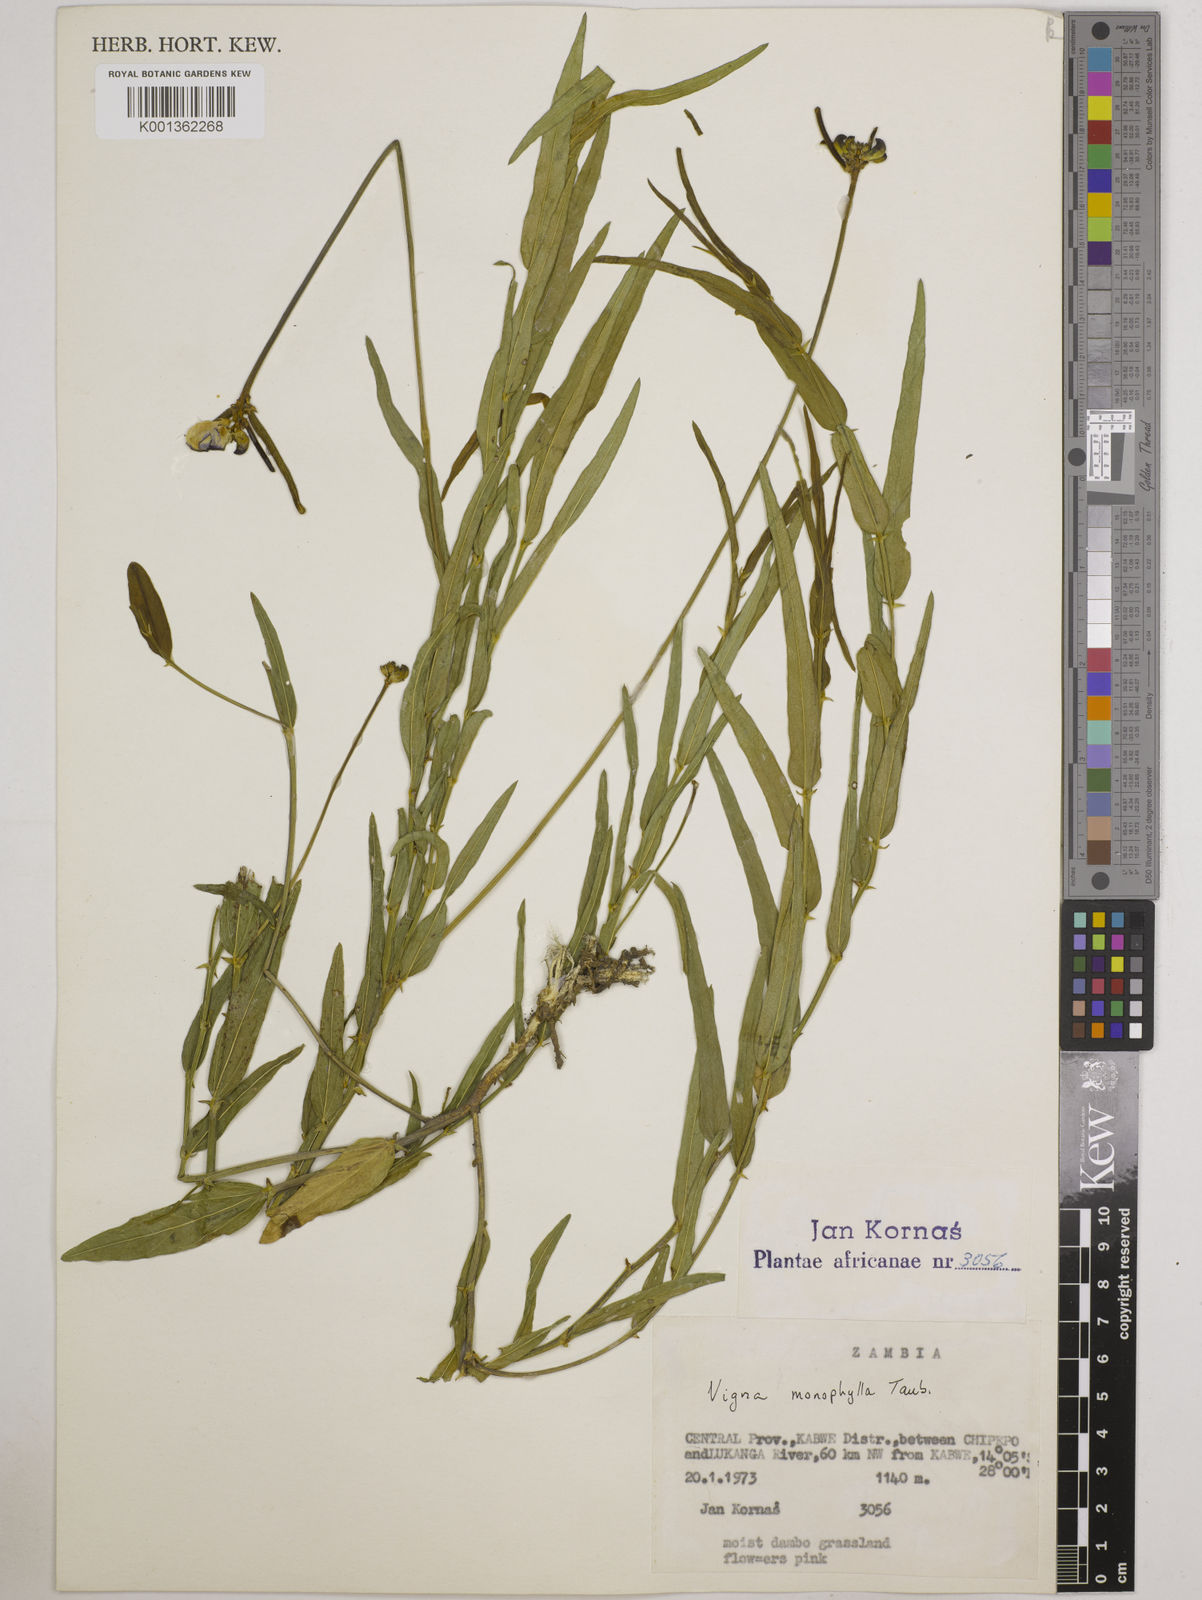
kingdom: Plantae
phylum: Tracheophyta
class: Magnoliopsida
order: Fabales
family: Fabaceae
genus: Vigna
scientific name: Vigna monophylla
